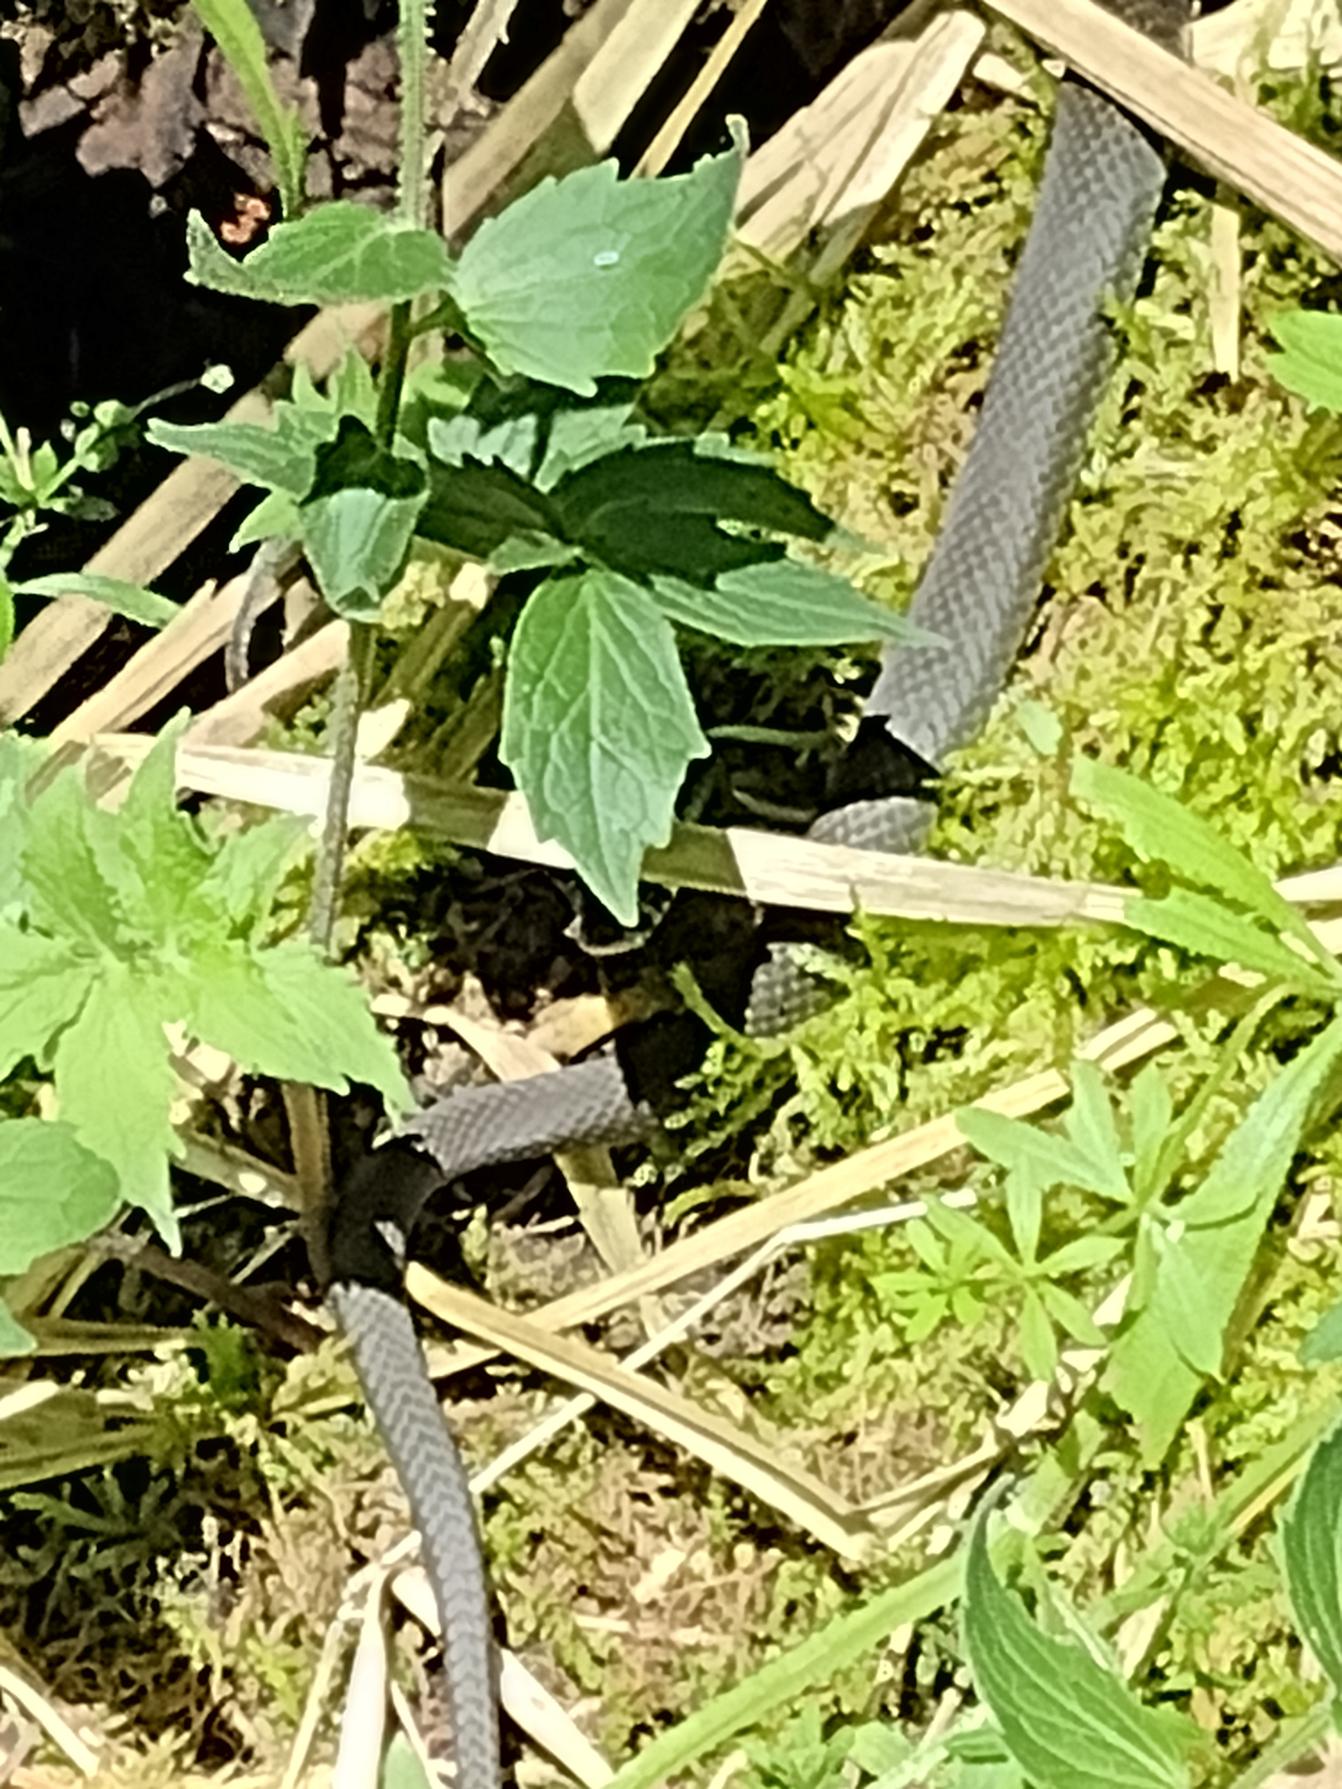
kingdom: Animalia
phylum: Chordata
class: Squamata
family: Colubridae
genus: Natrix
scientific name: Natrix natrix
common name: Snog
